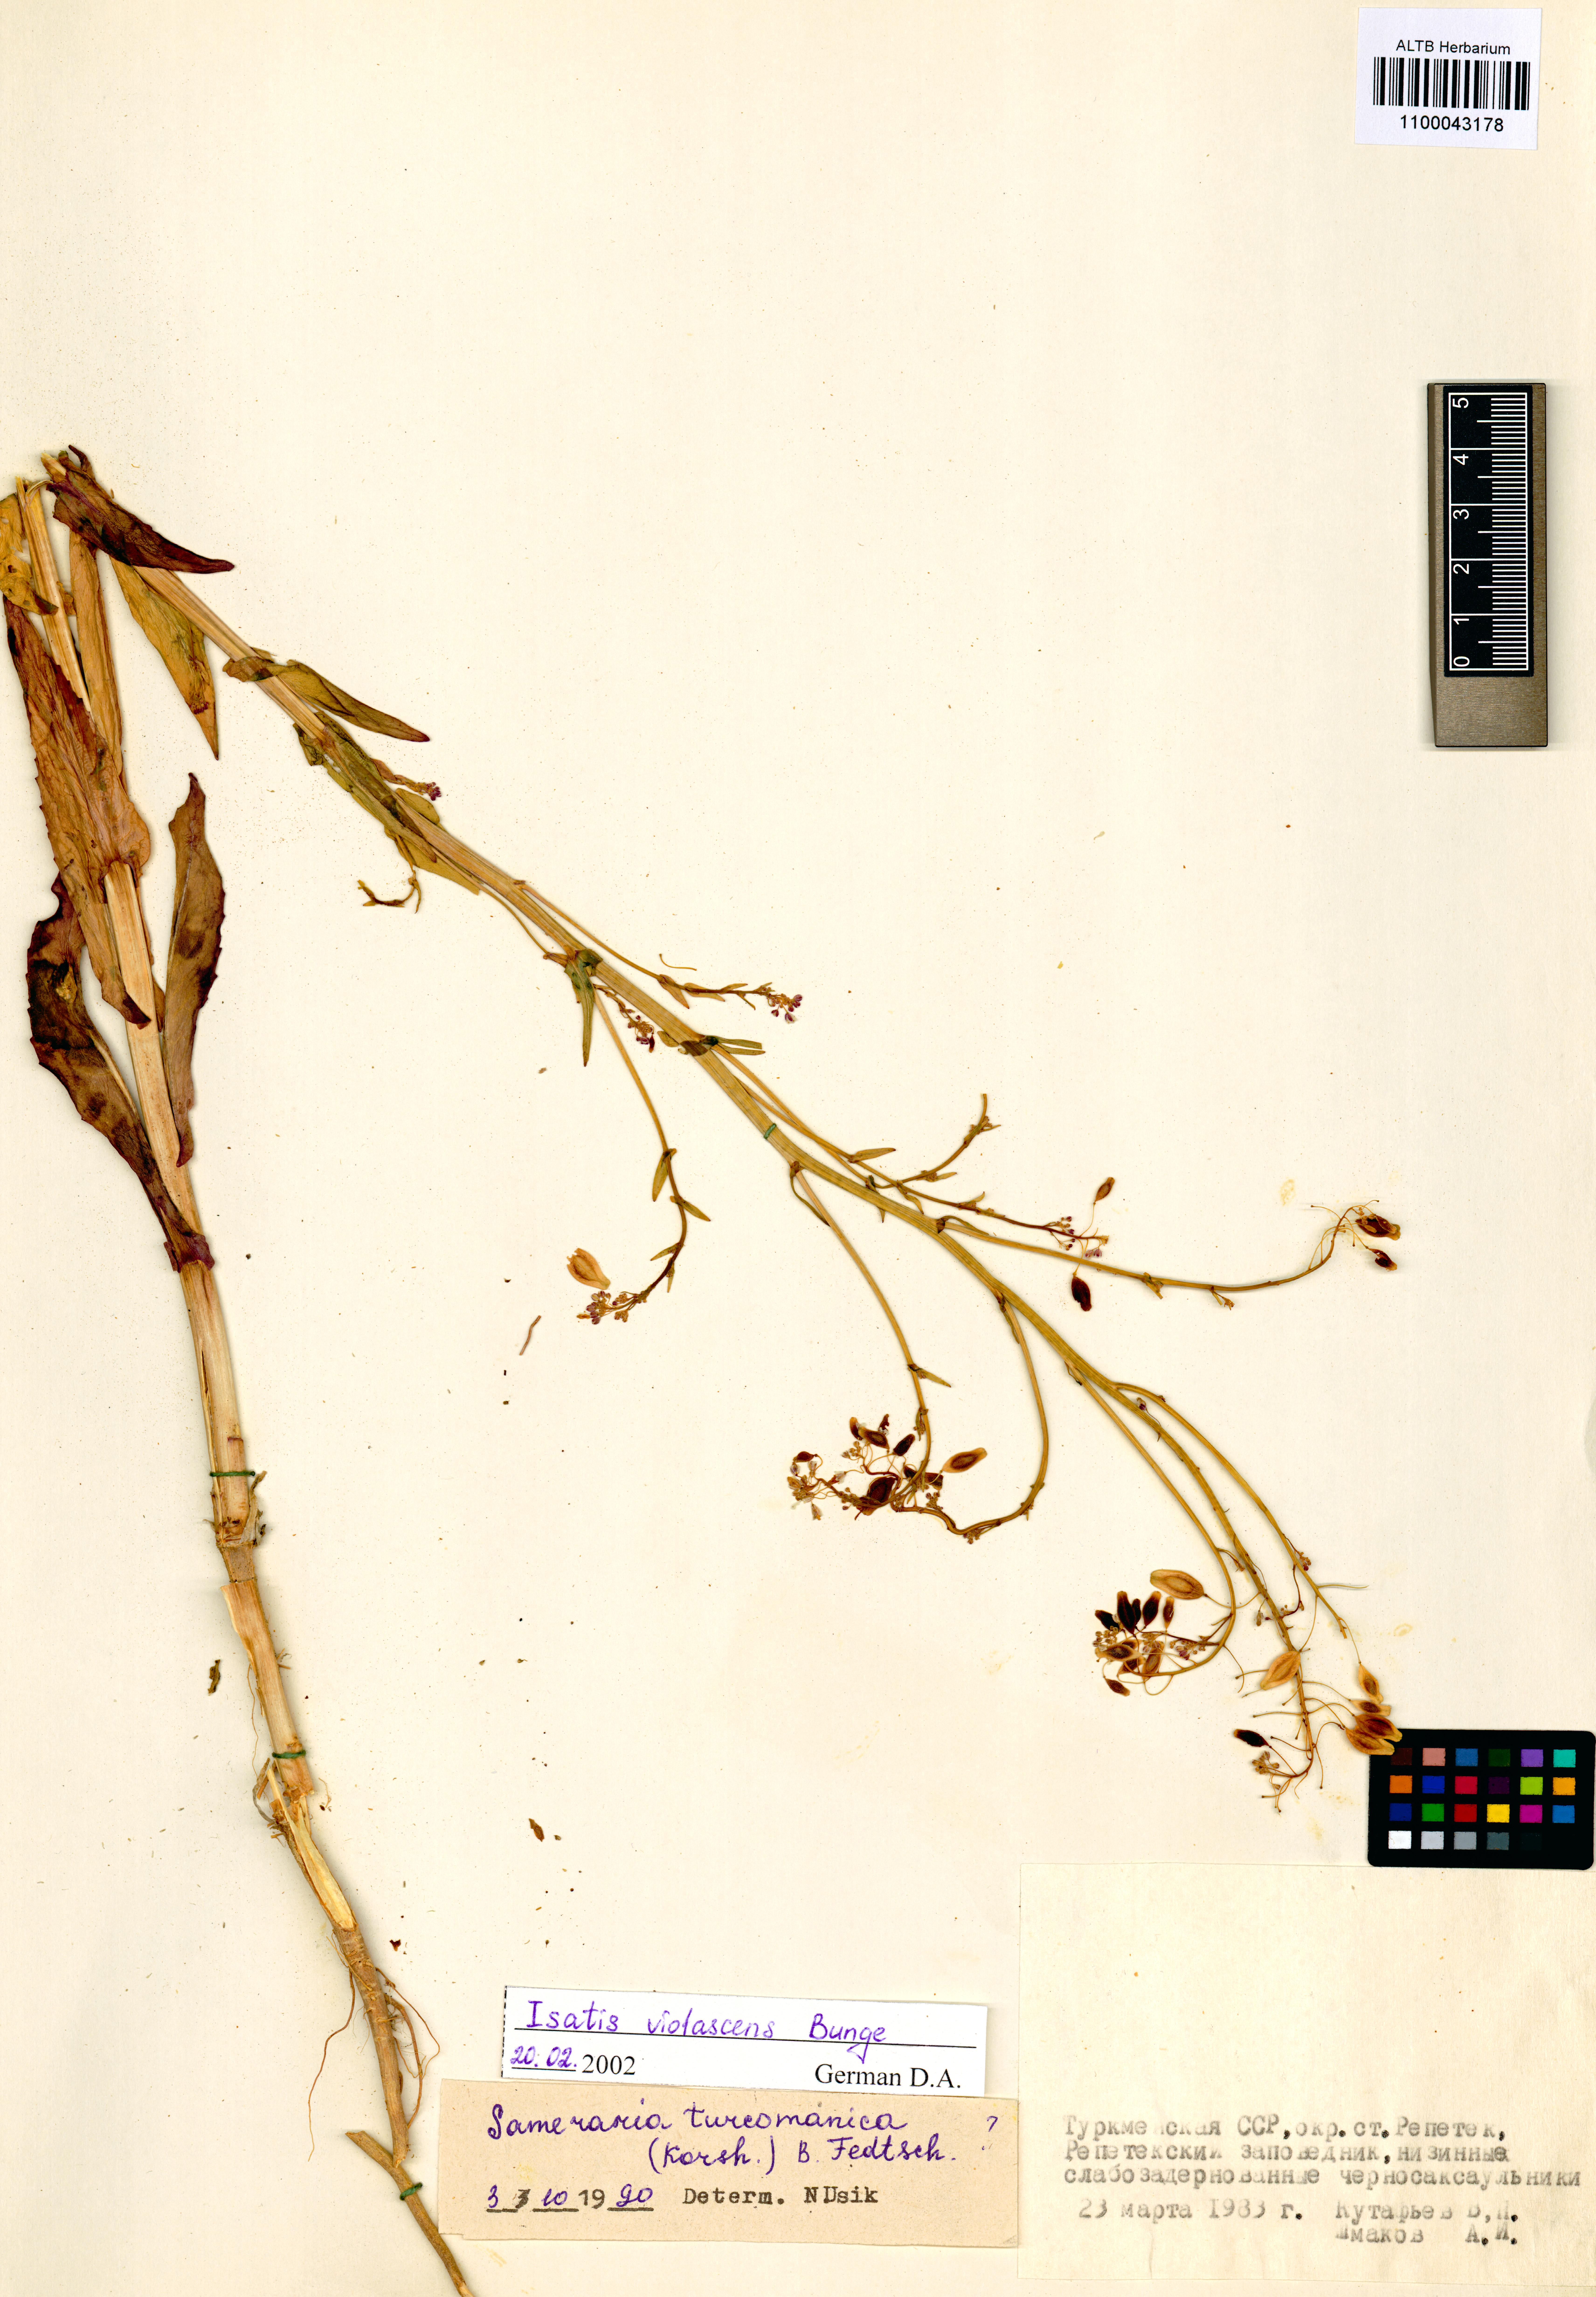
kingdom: Plantae
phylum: Tracheophyta
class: Magnoliopsida
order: Brassicales
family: Brassicaceae
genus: Isatis
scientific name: Isatis violascens
